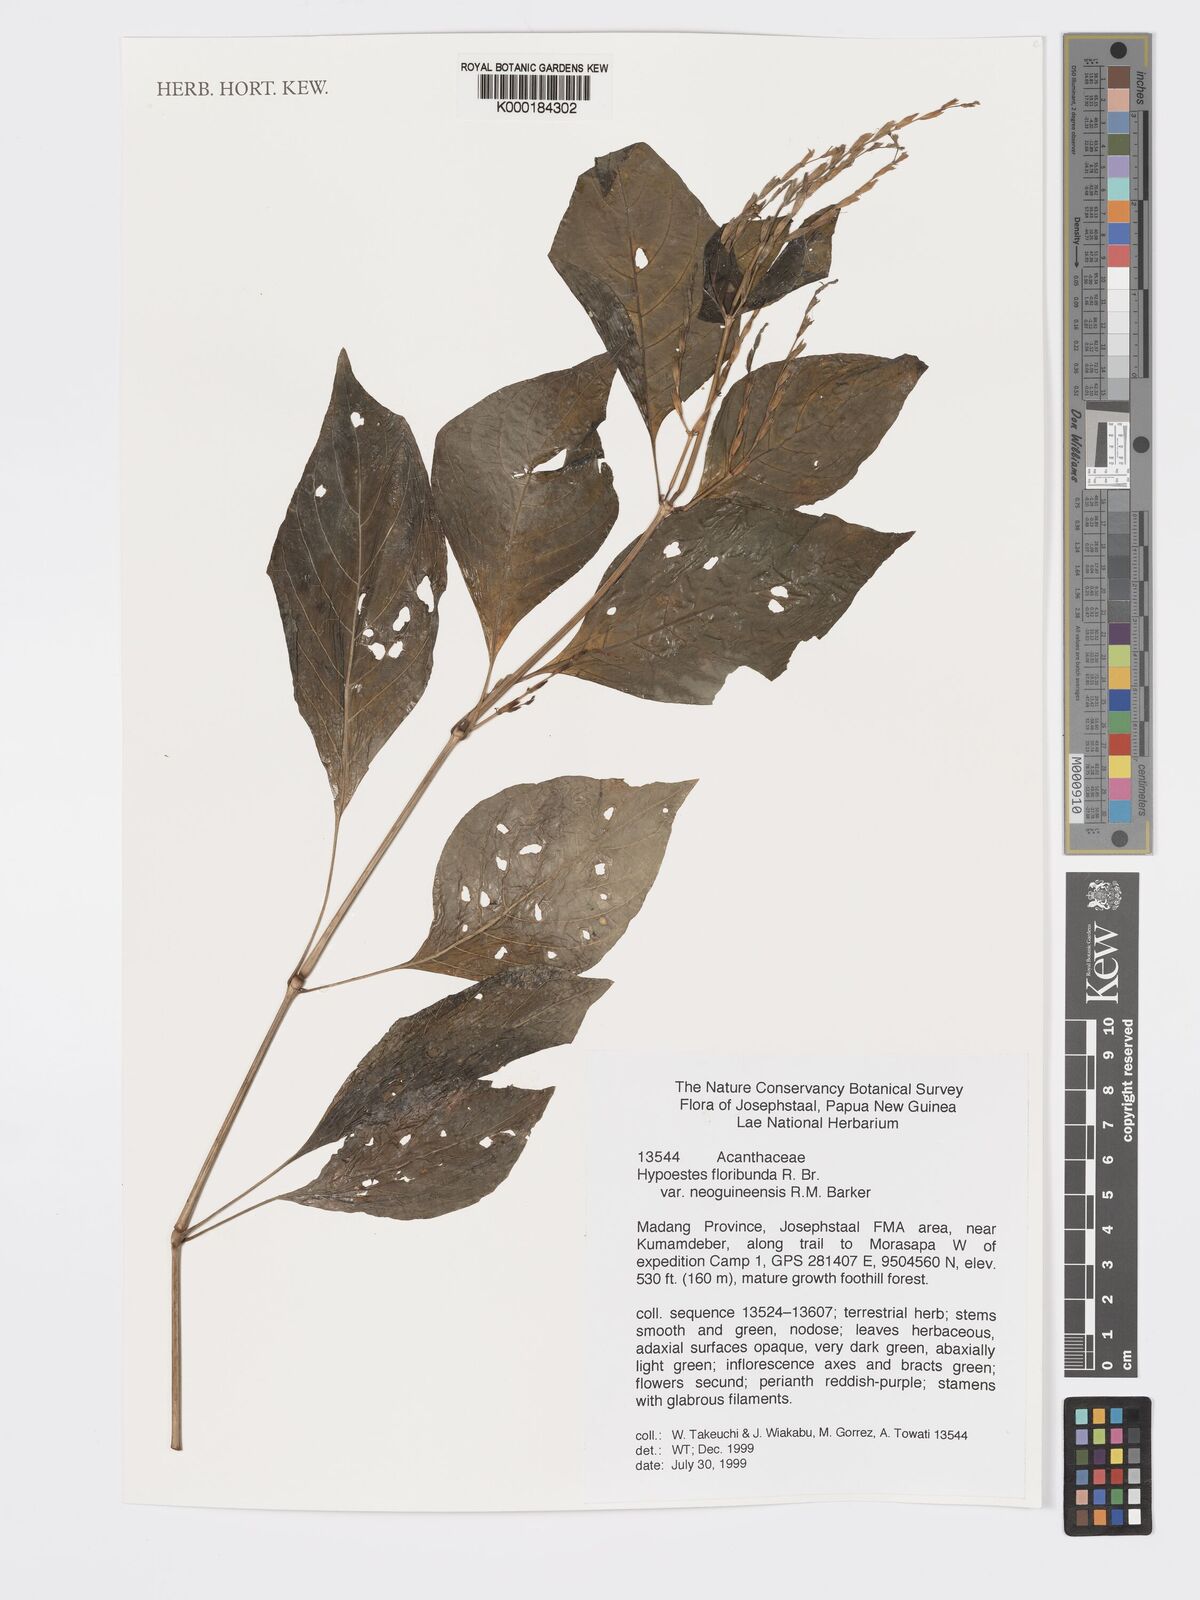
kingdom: Plantae
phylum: Tracheophyta
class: Magnoliopsida
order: Lamiales
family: Acanthaceae
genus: Hypoestes
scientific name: Hypoestes floribunda
